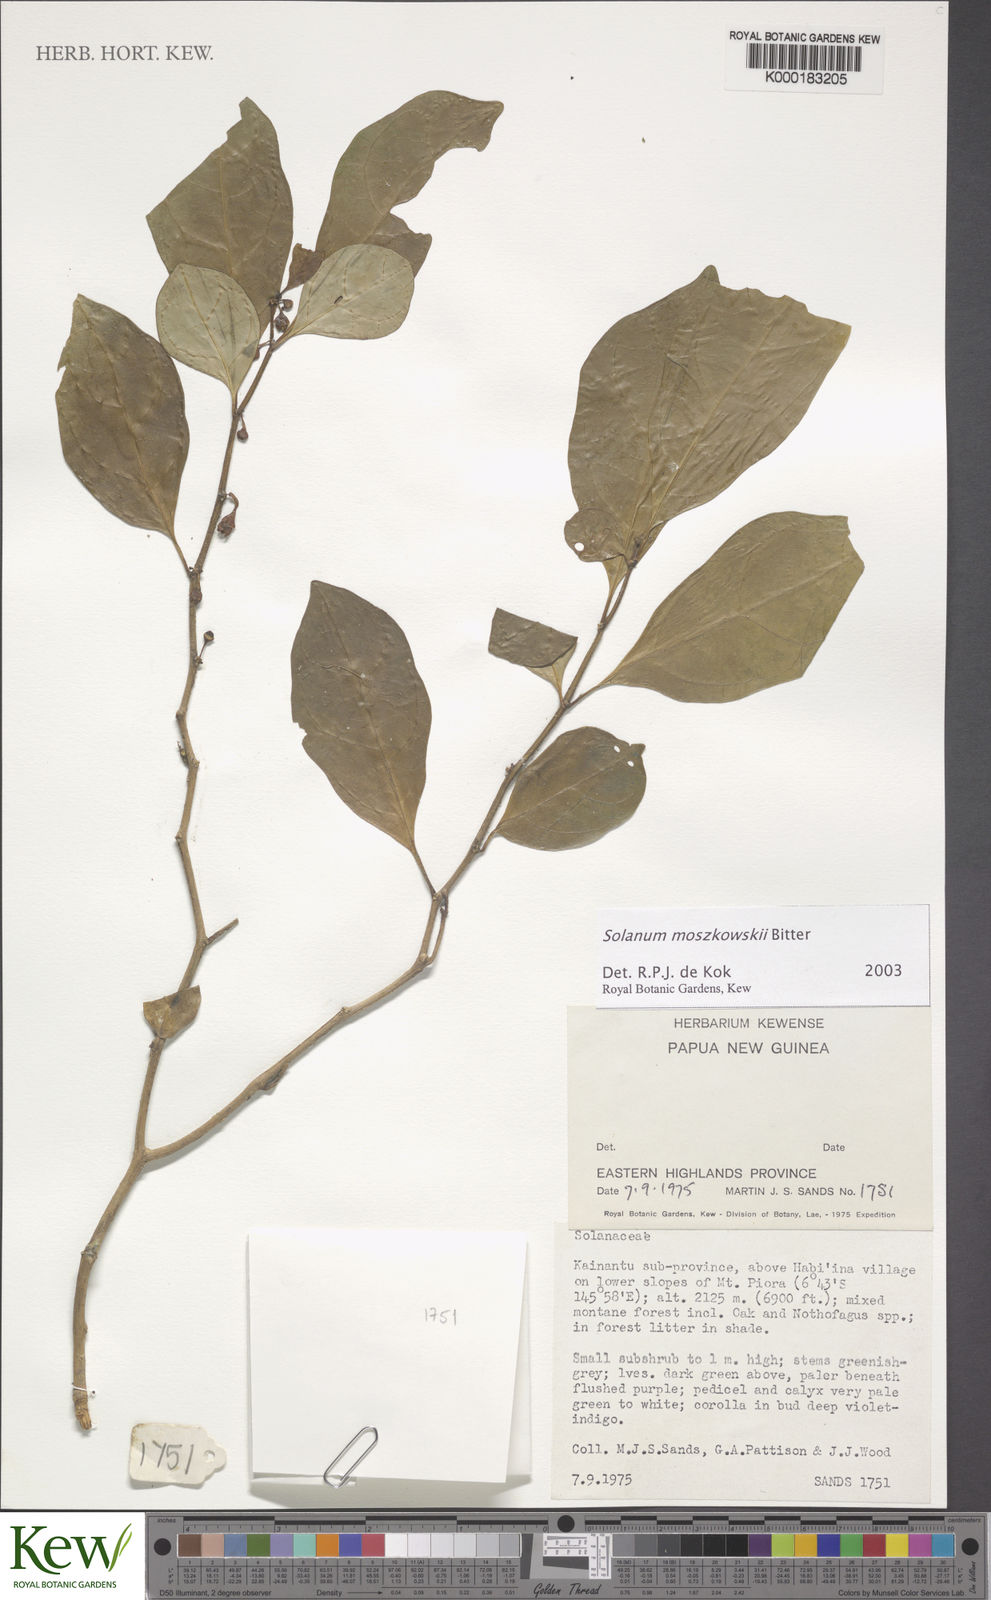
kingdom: Plantae
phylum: Tracheophyta
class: Magnoliopsida
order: Solanales
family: Solanaceae
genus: Lycianthes
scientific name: Lycianthes moszkowskii
